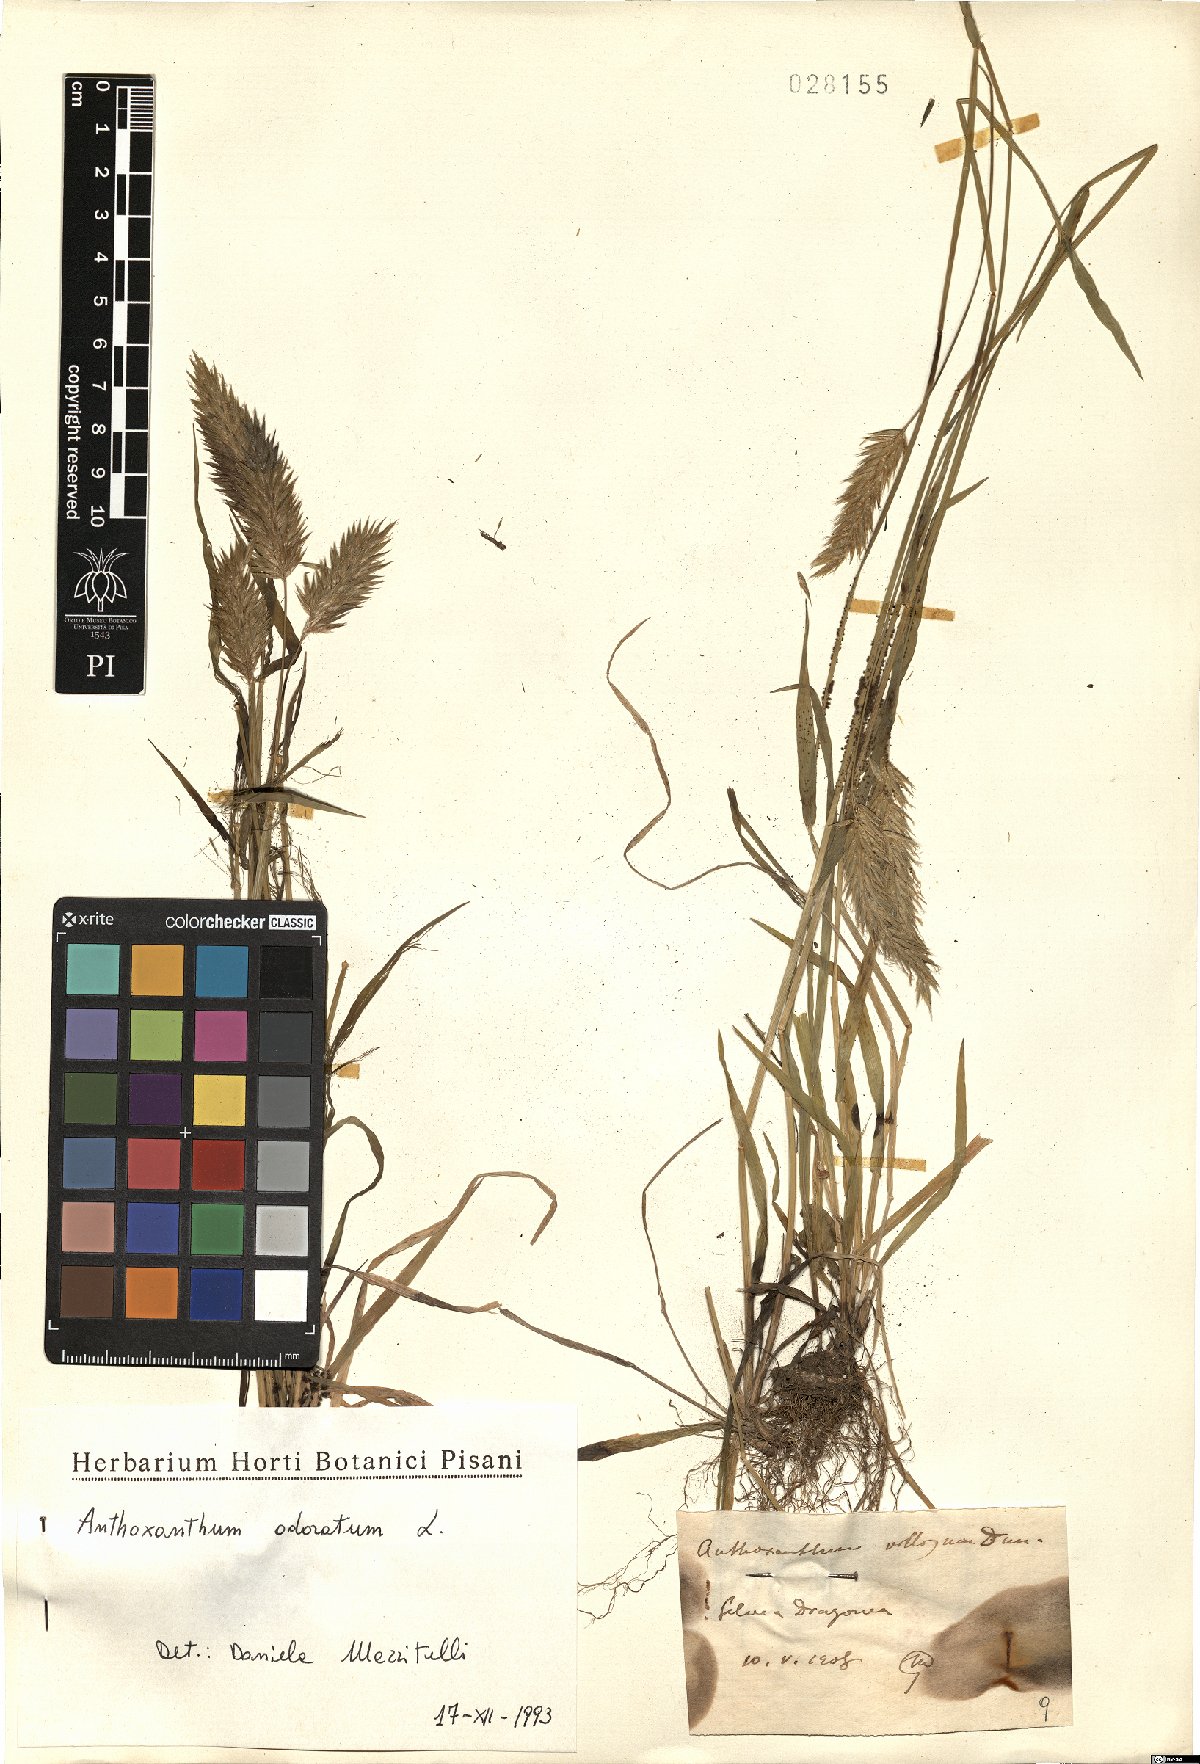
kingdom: Plantae
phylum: Tracheophyta
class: Liliopsida
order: Poales
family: Poaceae
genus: Anthoxanthum
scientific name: Anthoxanthum odoratum
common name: Sweet vernalgrass
